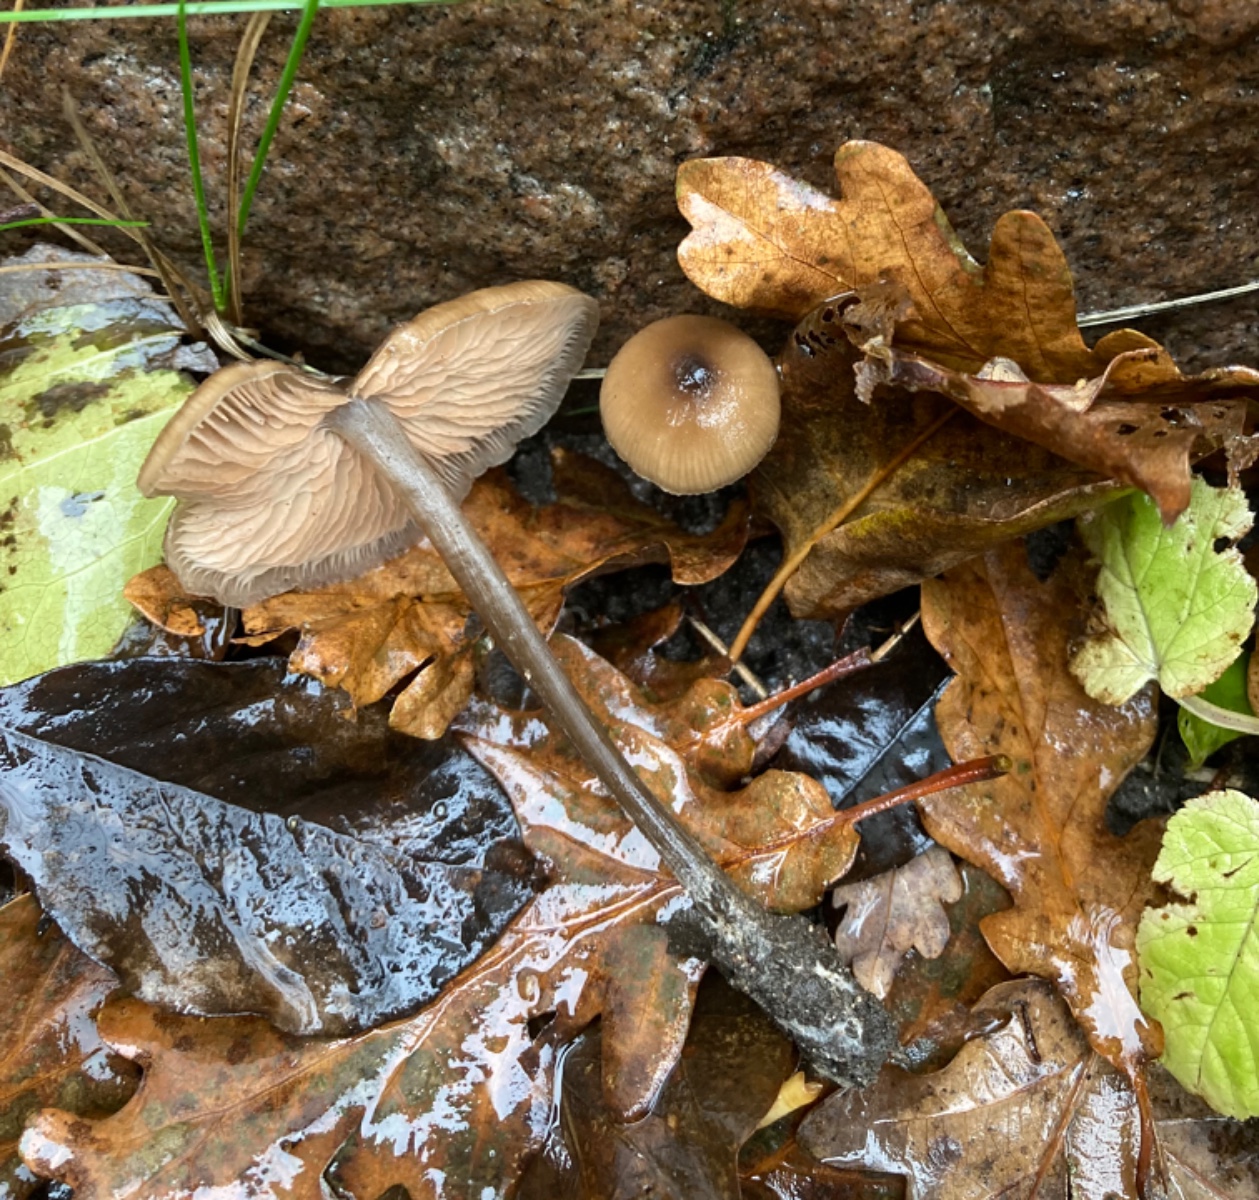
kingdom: Fungi
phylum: Basidiomycota
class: Agaricomycetes
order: Agaricales
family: Entolomataceae
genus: Entoloma
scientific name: Entoloma
